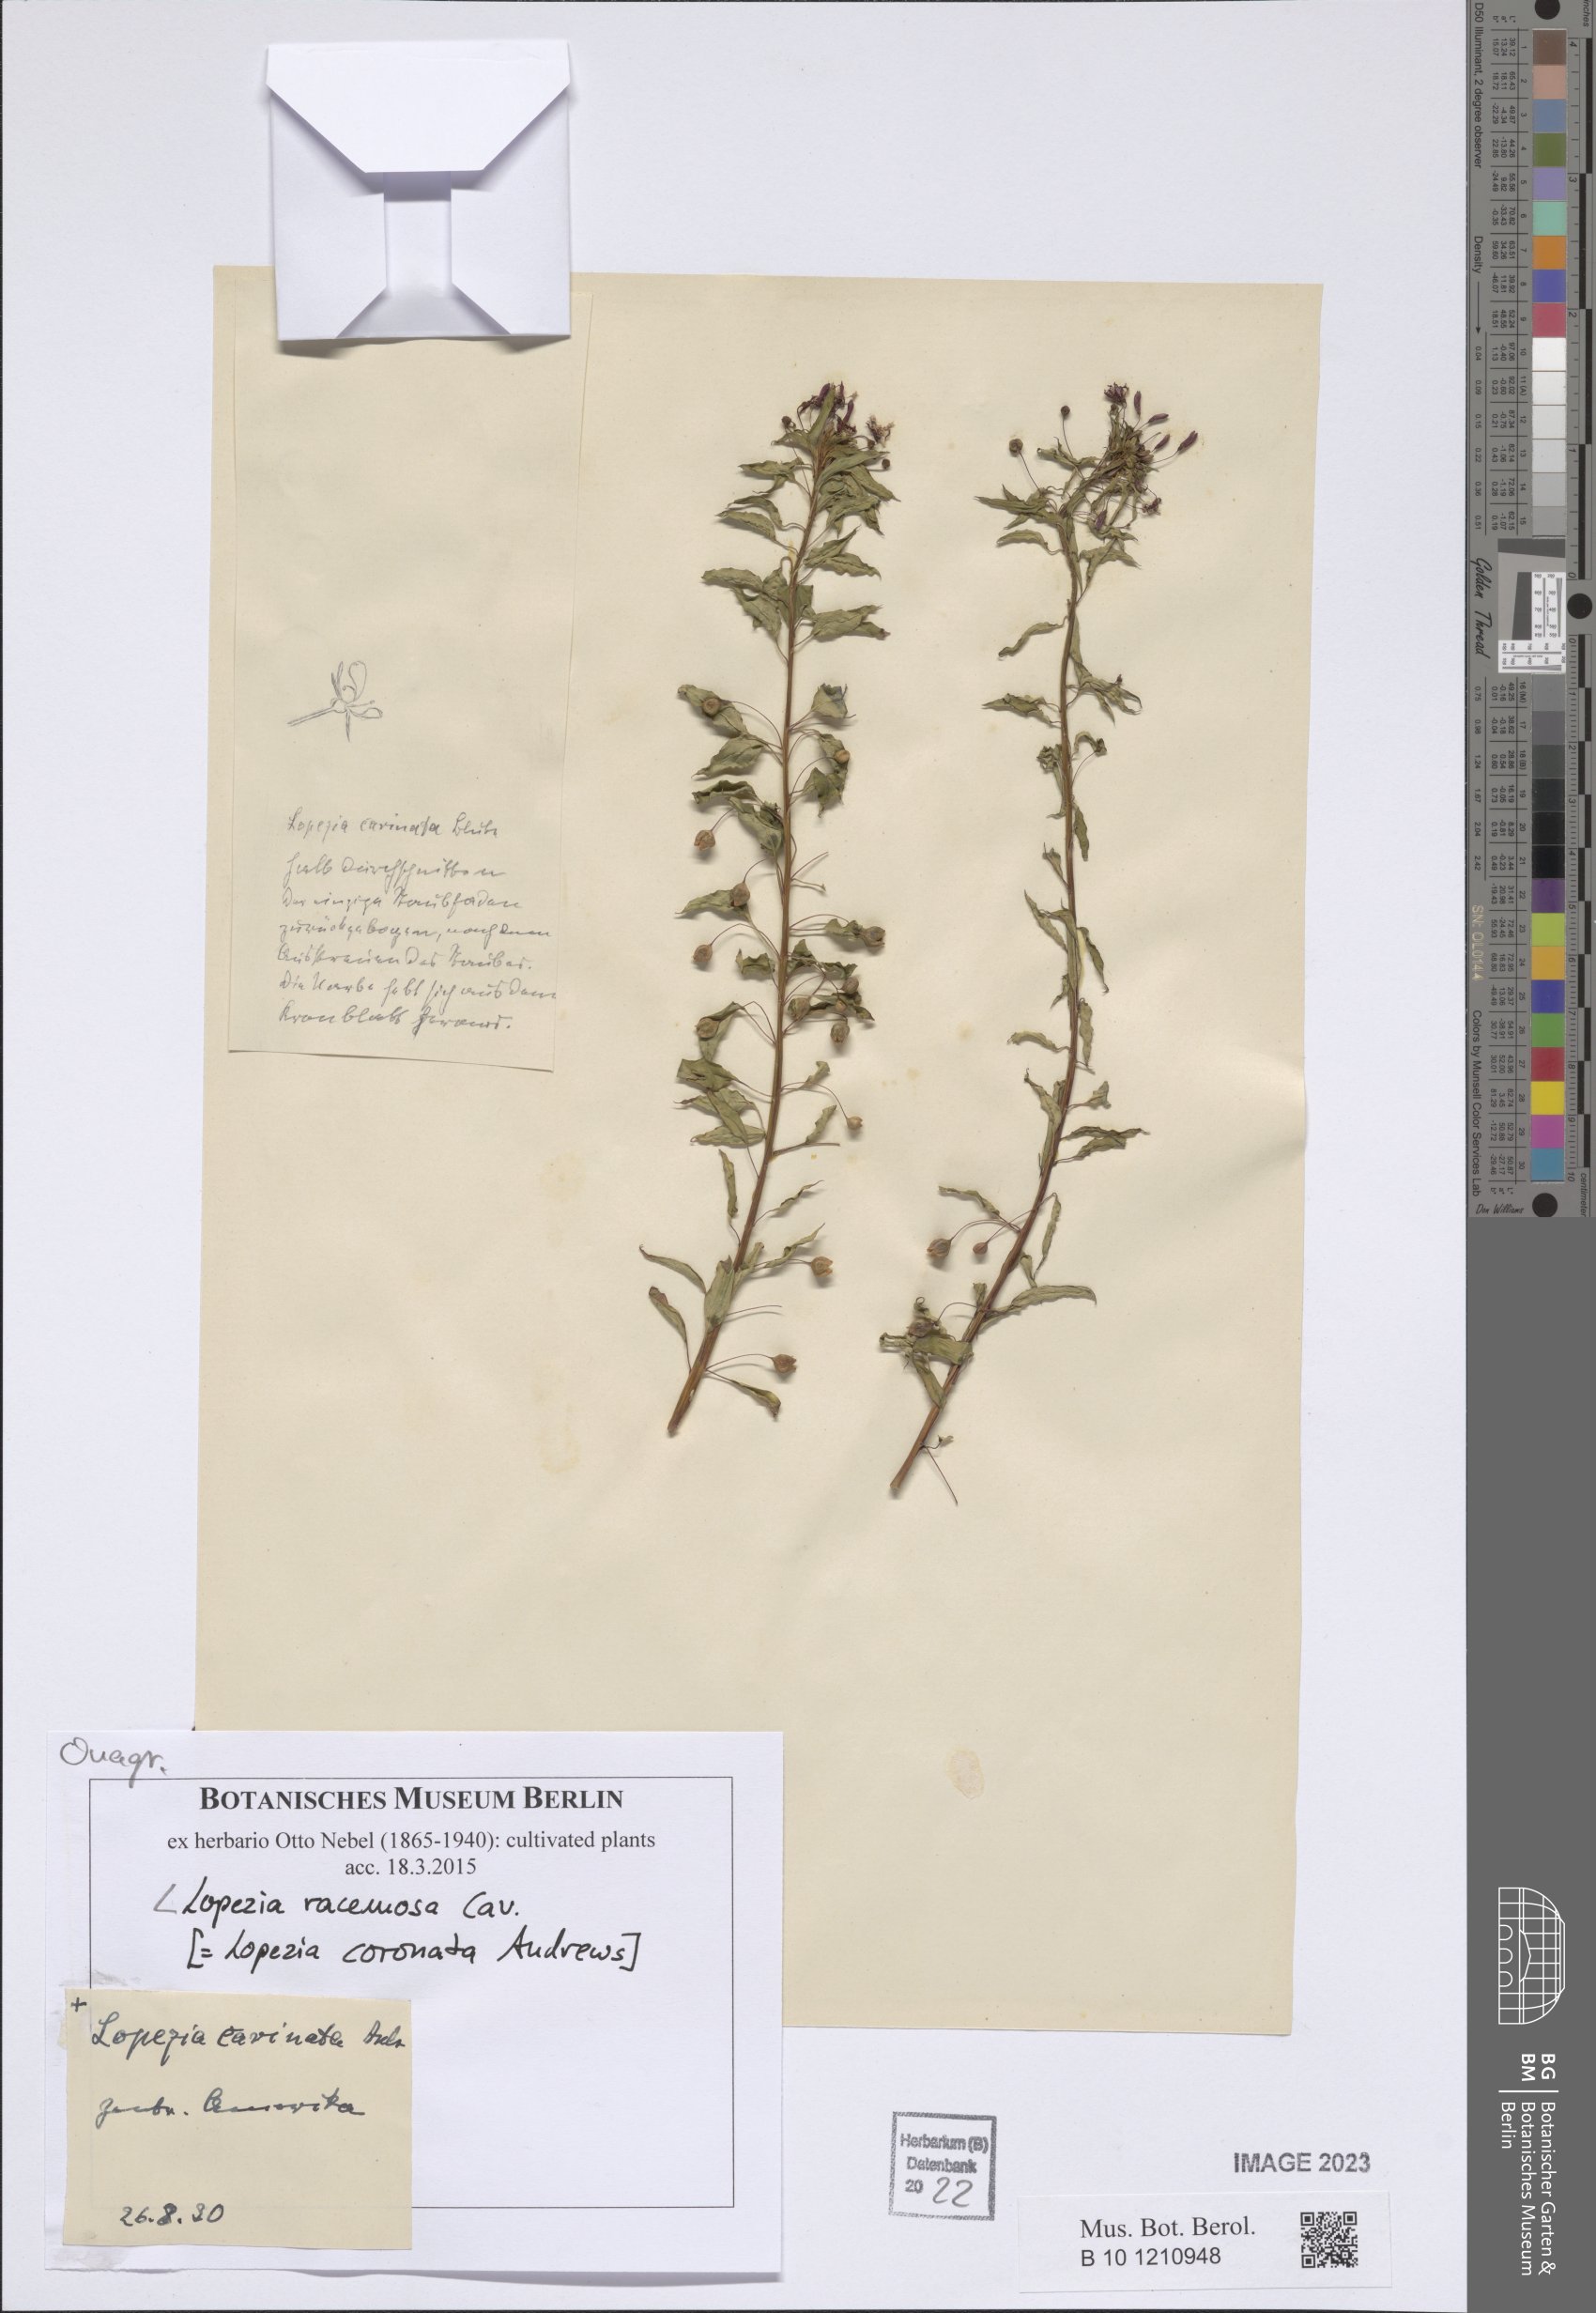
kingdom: Plantae
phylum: Tracheophyta
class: Magnoliopsida
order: Myrtales
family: Onagraceae
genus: Lopezia
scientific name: Lopezia racemosa
